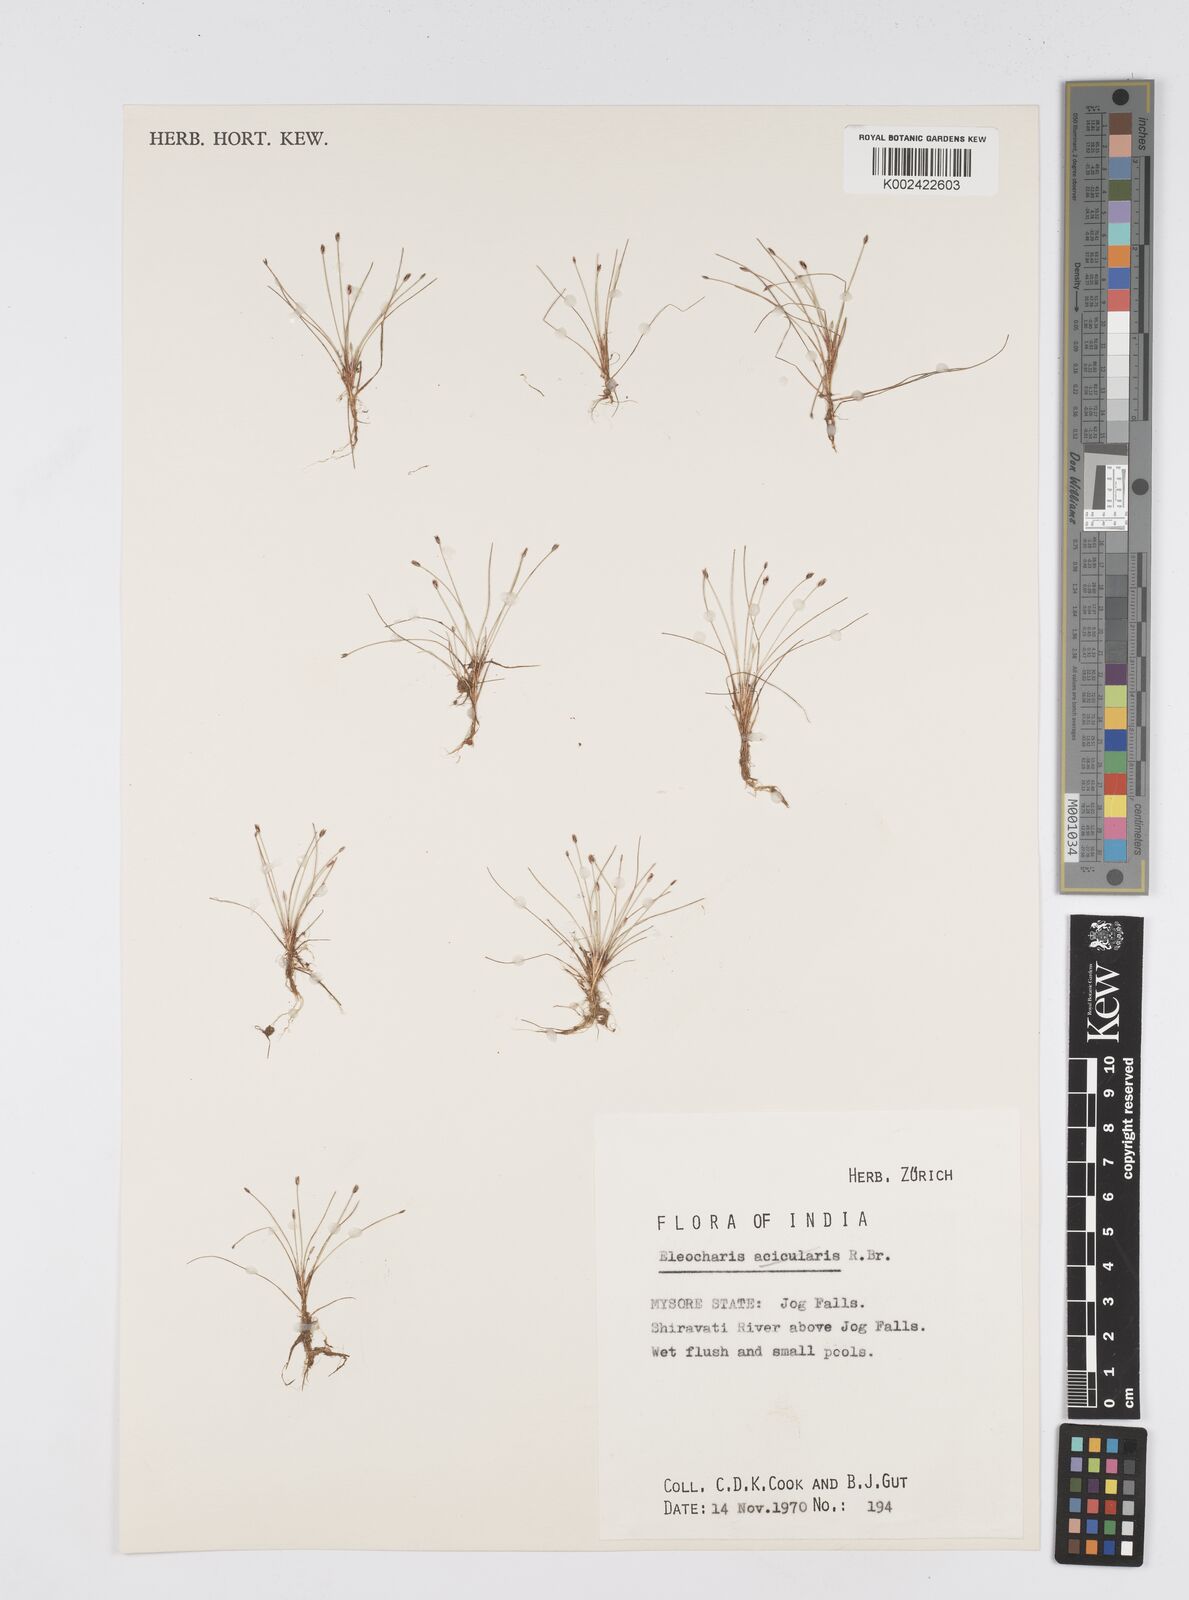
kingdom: Plantae
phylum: Tracheophyta
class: Liliopsida
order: Poales
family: Cyperaceae
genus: Eleocharis
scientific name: Eleocharis retroflexa
